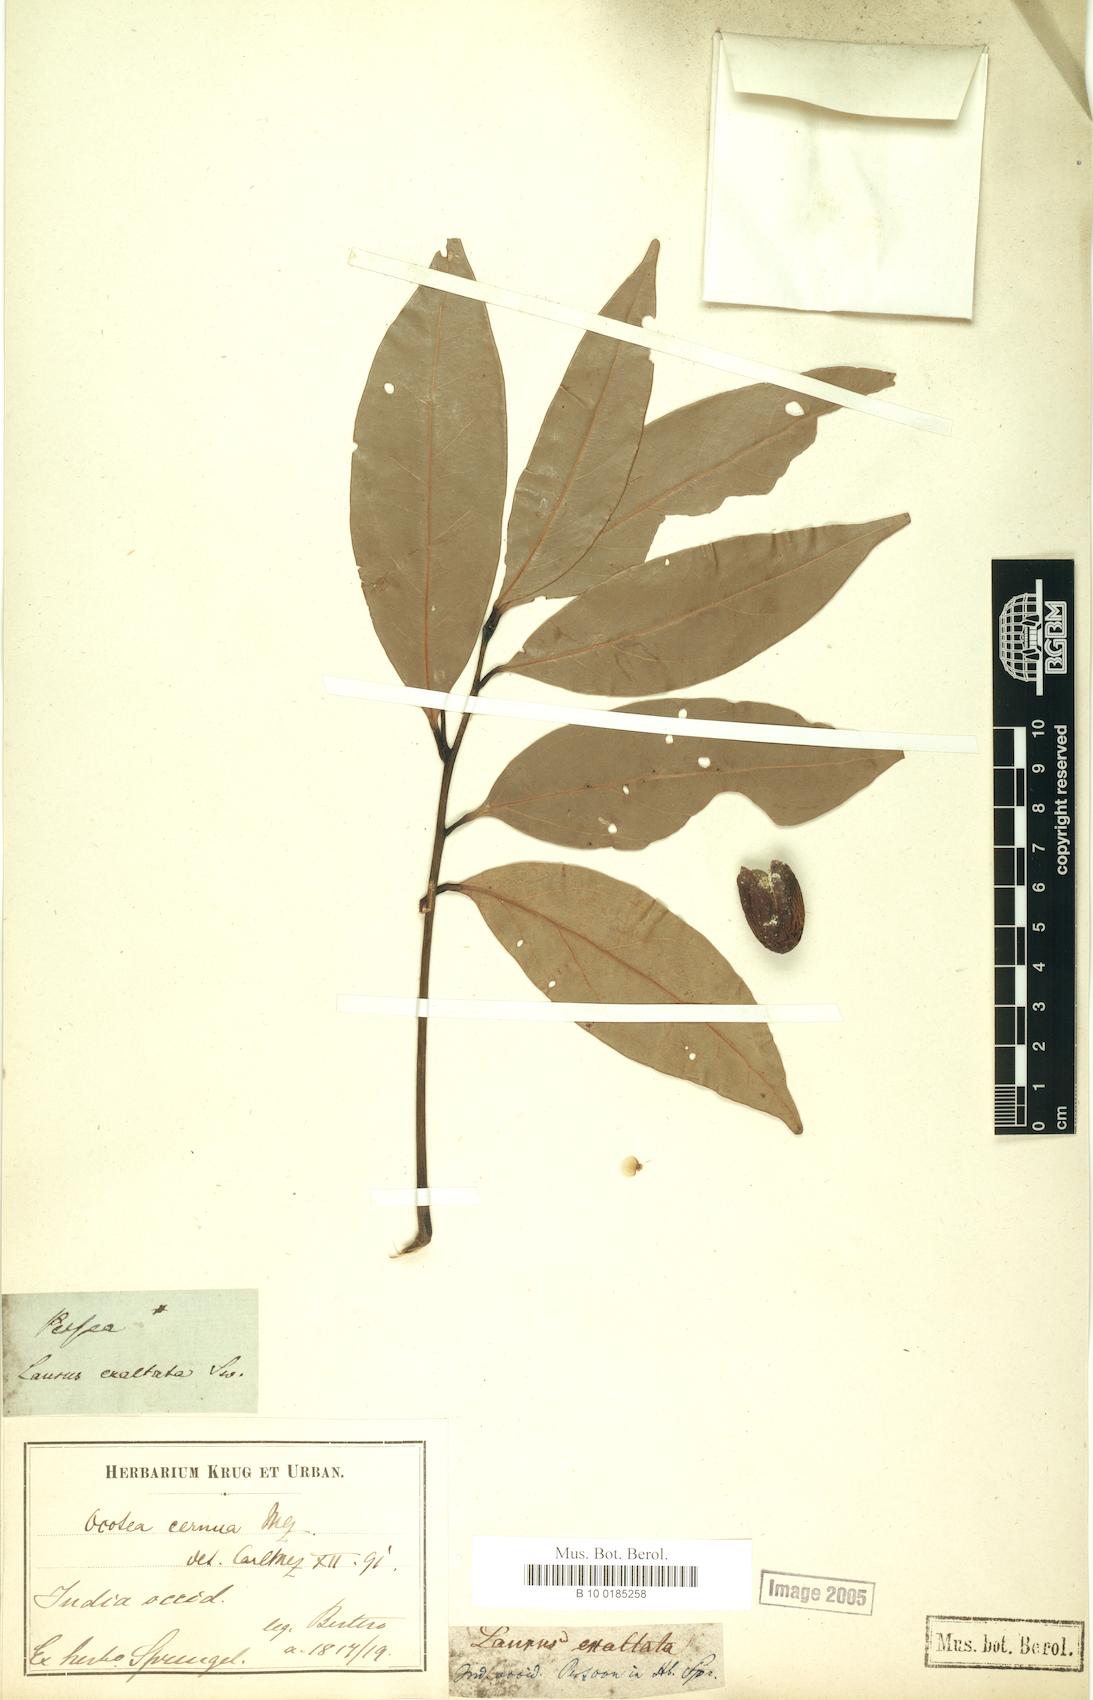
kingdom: Plantae
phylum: Tracheophyta
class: Magnoliopsida
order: Laurales
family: Lauraceae
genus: Ocotea
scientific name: Ocotea leptobotra
